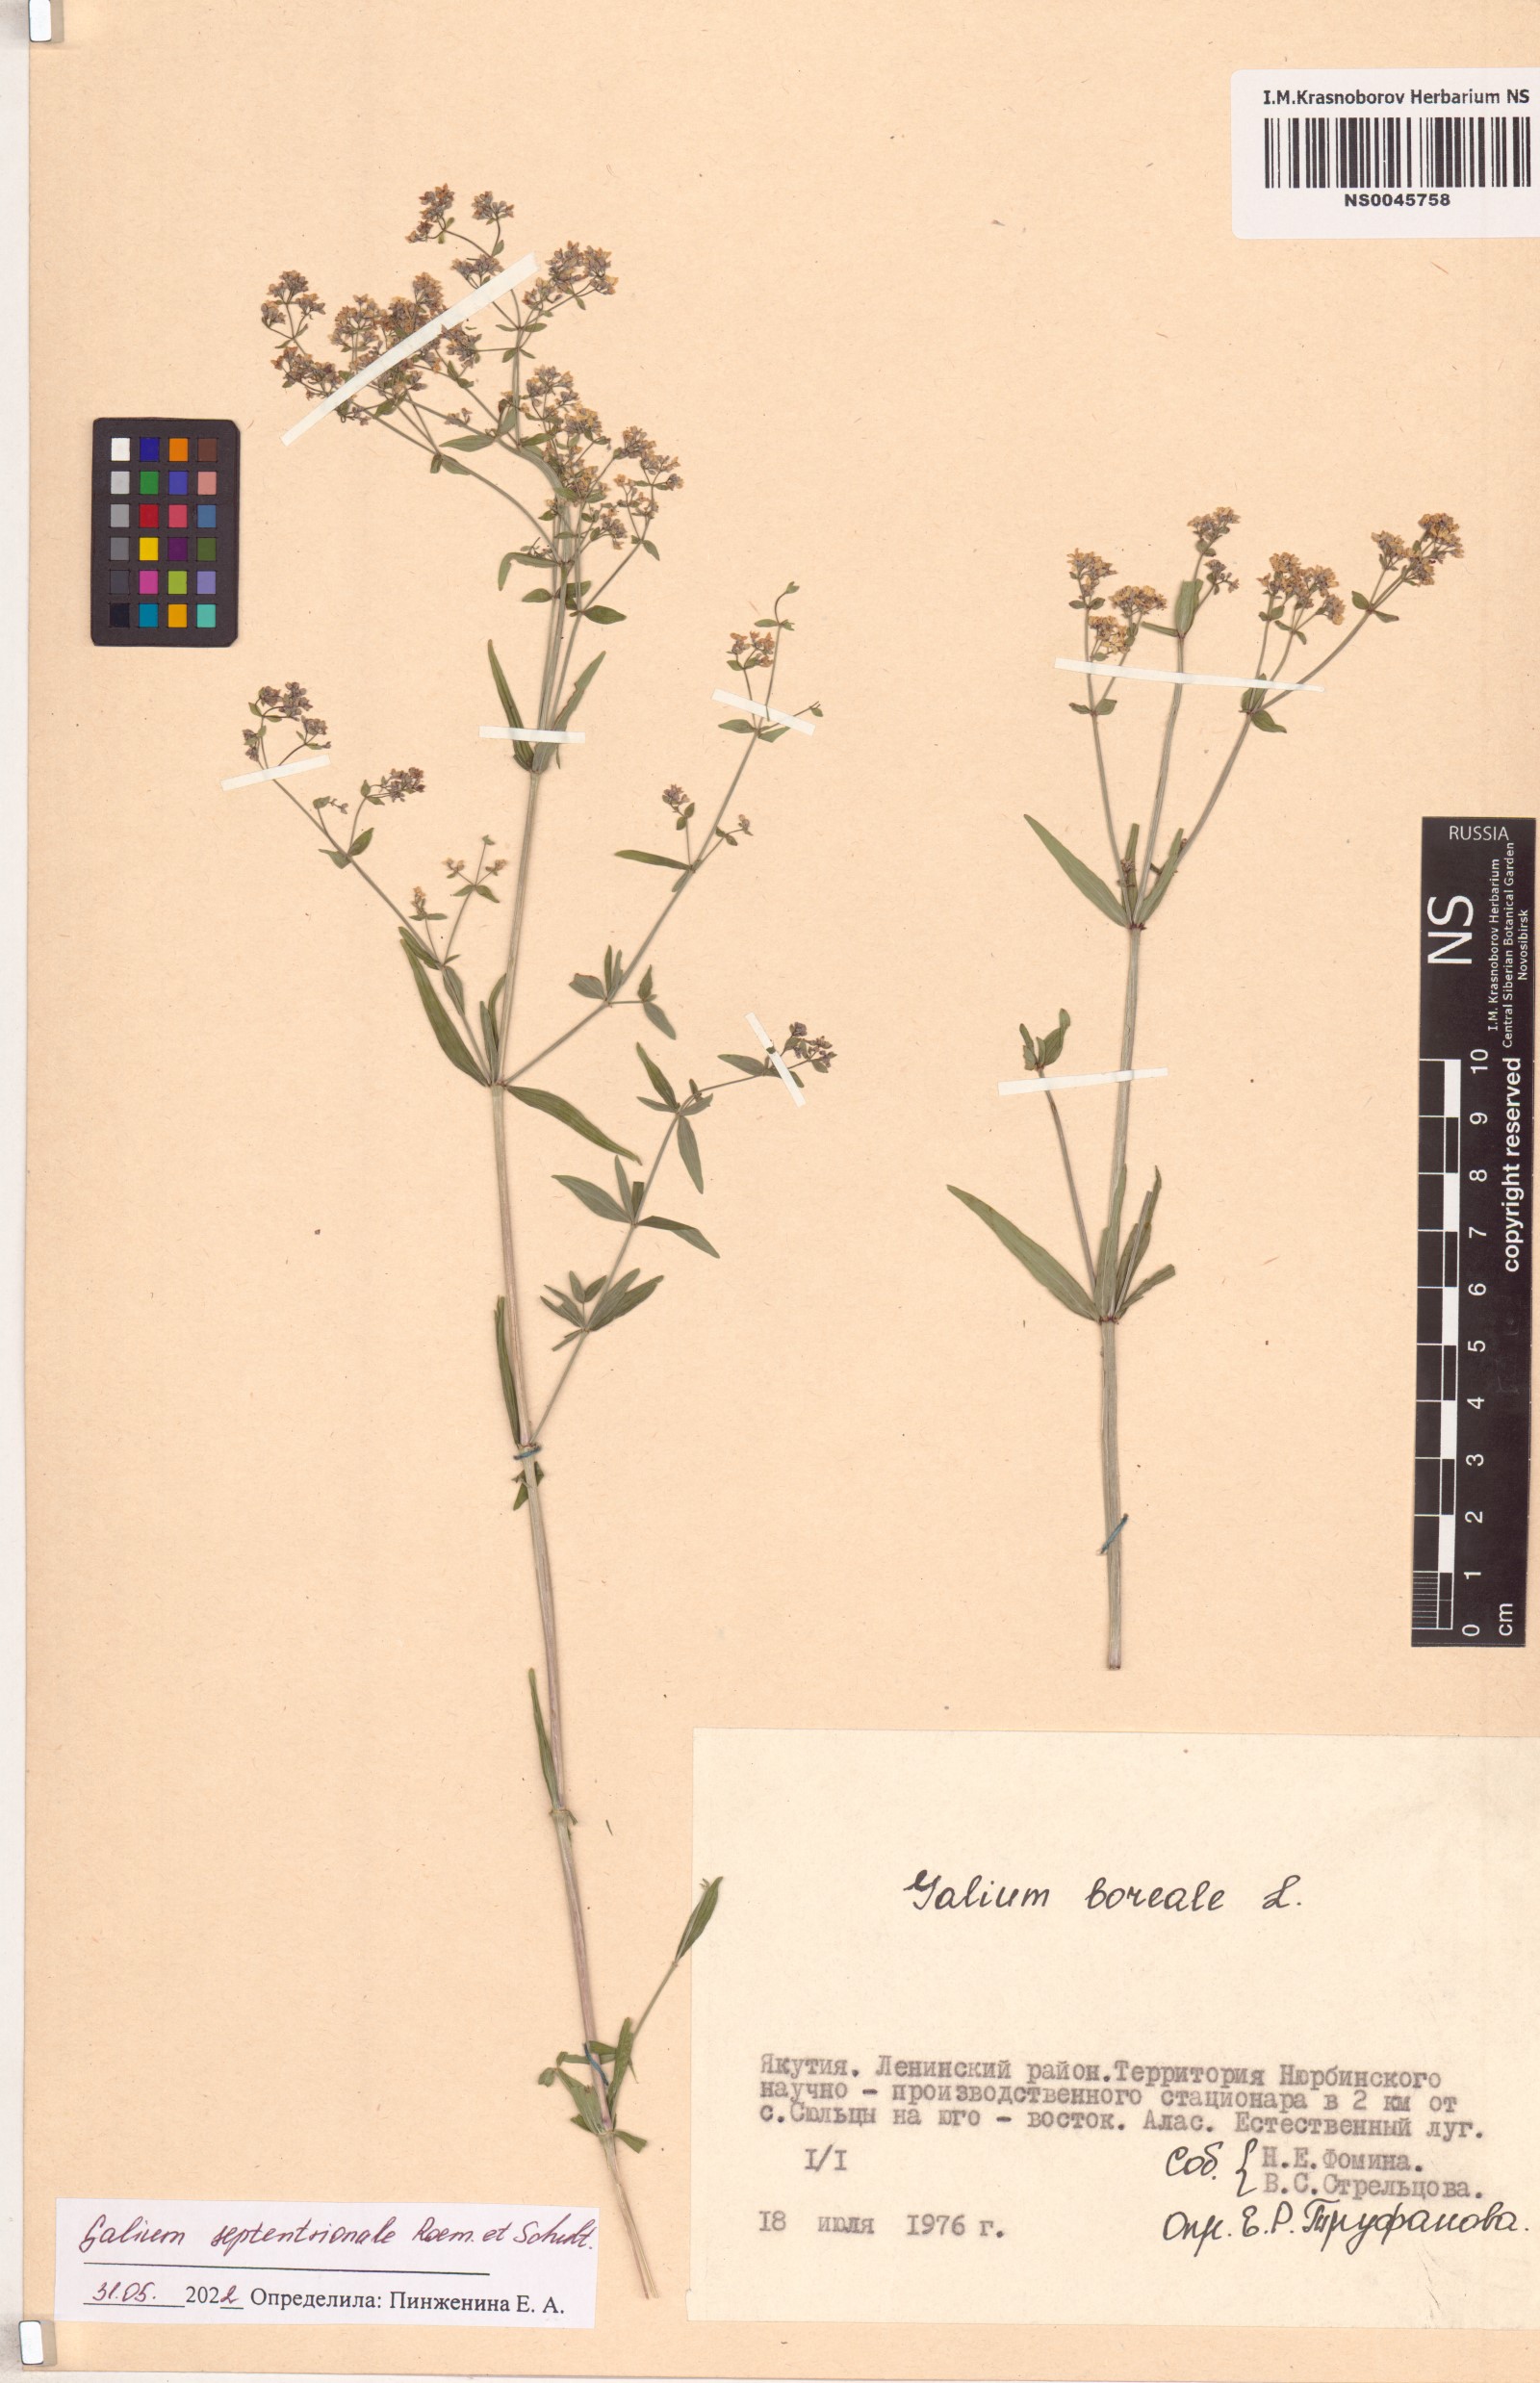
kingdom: Plantae
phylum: Tracheophyta
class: Magnoliopsida
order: Gentianales
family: Rubiaceae
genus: Galium
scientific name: Galium boreale
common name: Northern bedstraw
